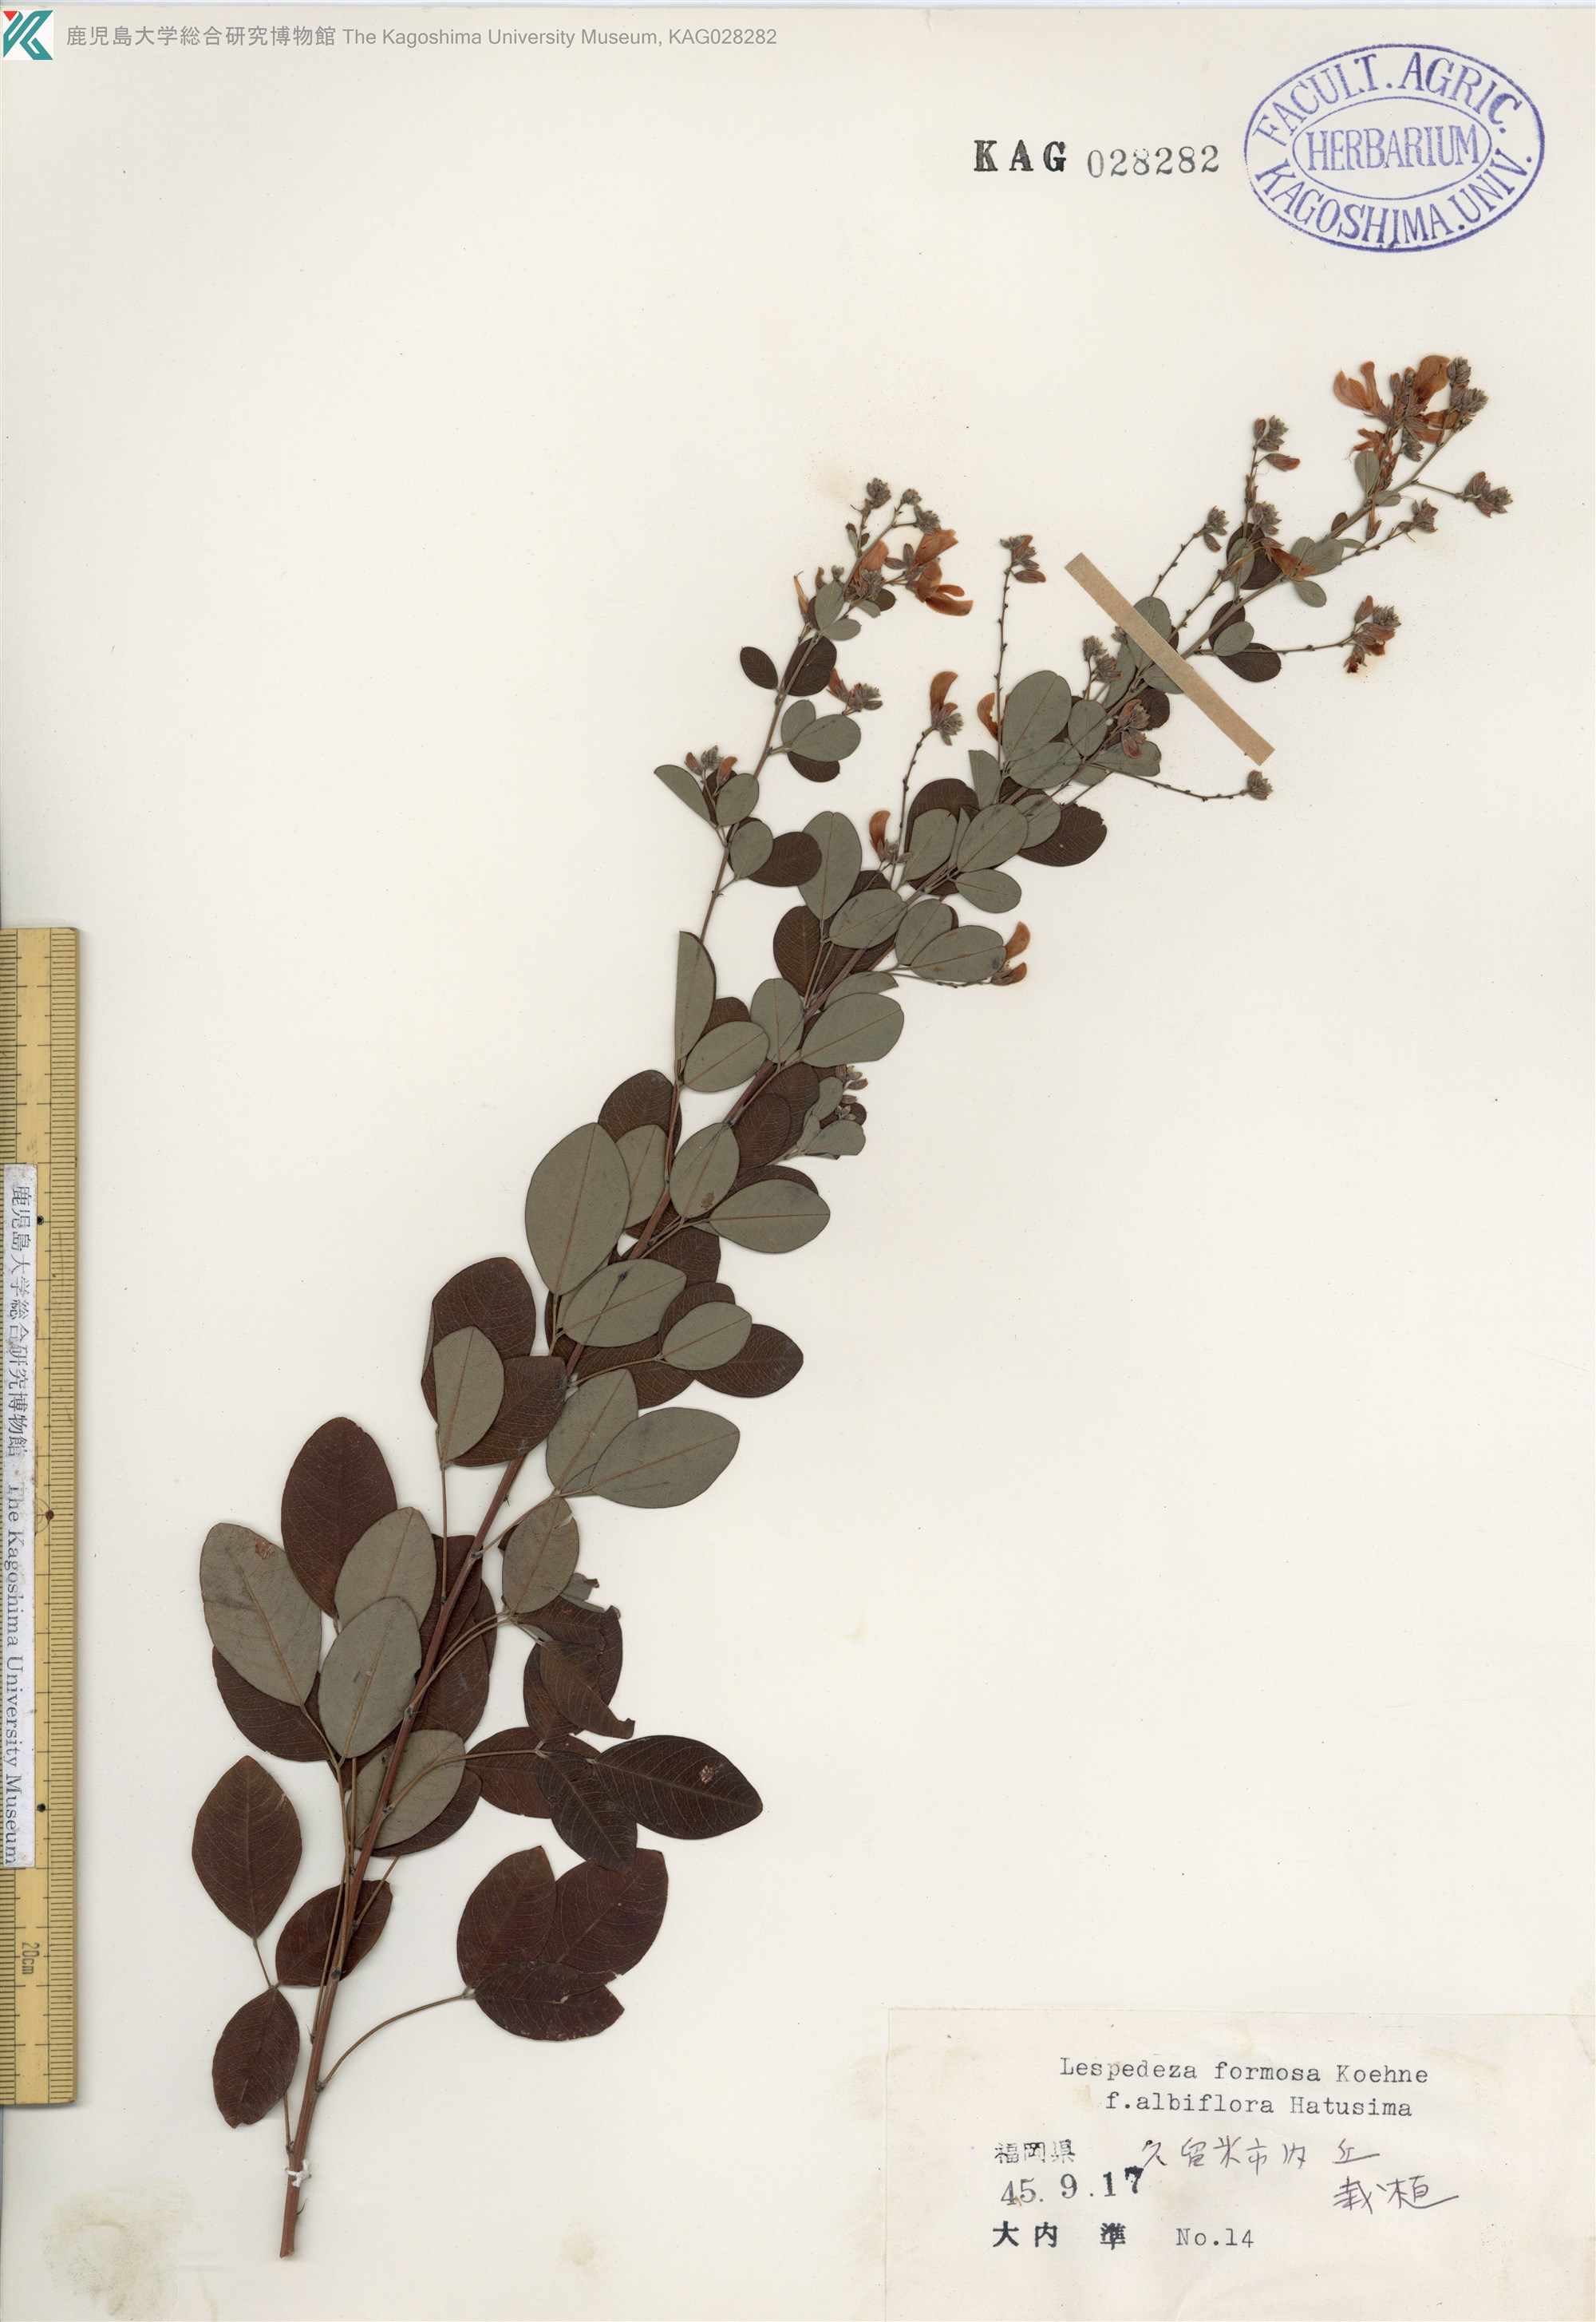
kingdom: Plantae
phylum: Tracheophyta
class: Magnoliopsida
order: Fabales
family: Fabaceae
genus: Lespedeza
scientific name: Lespedeza thunbergii
